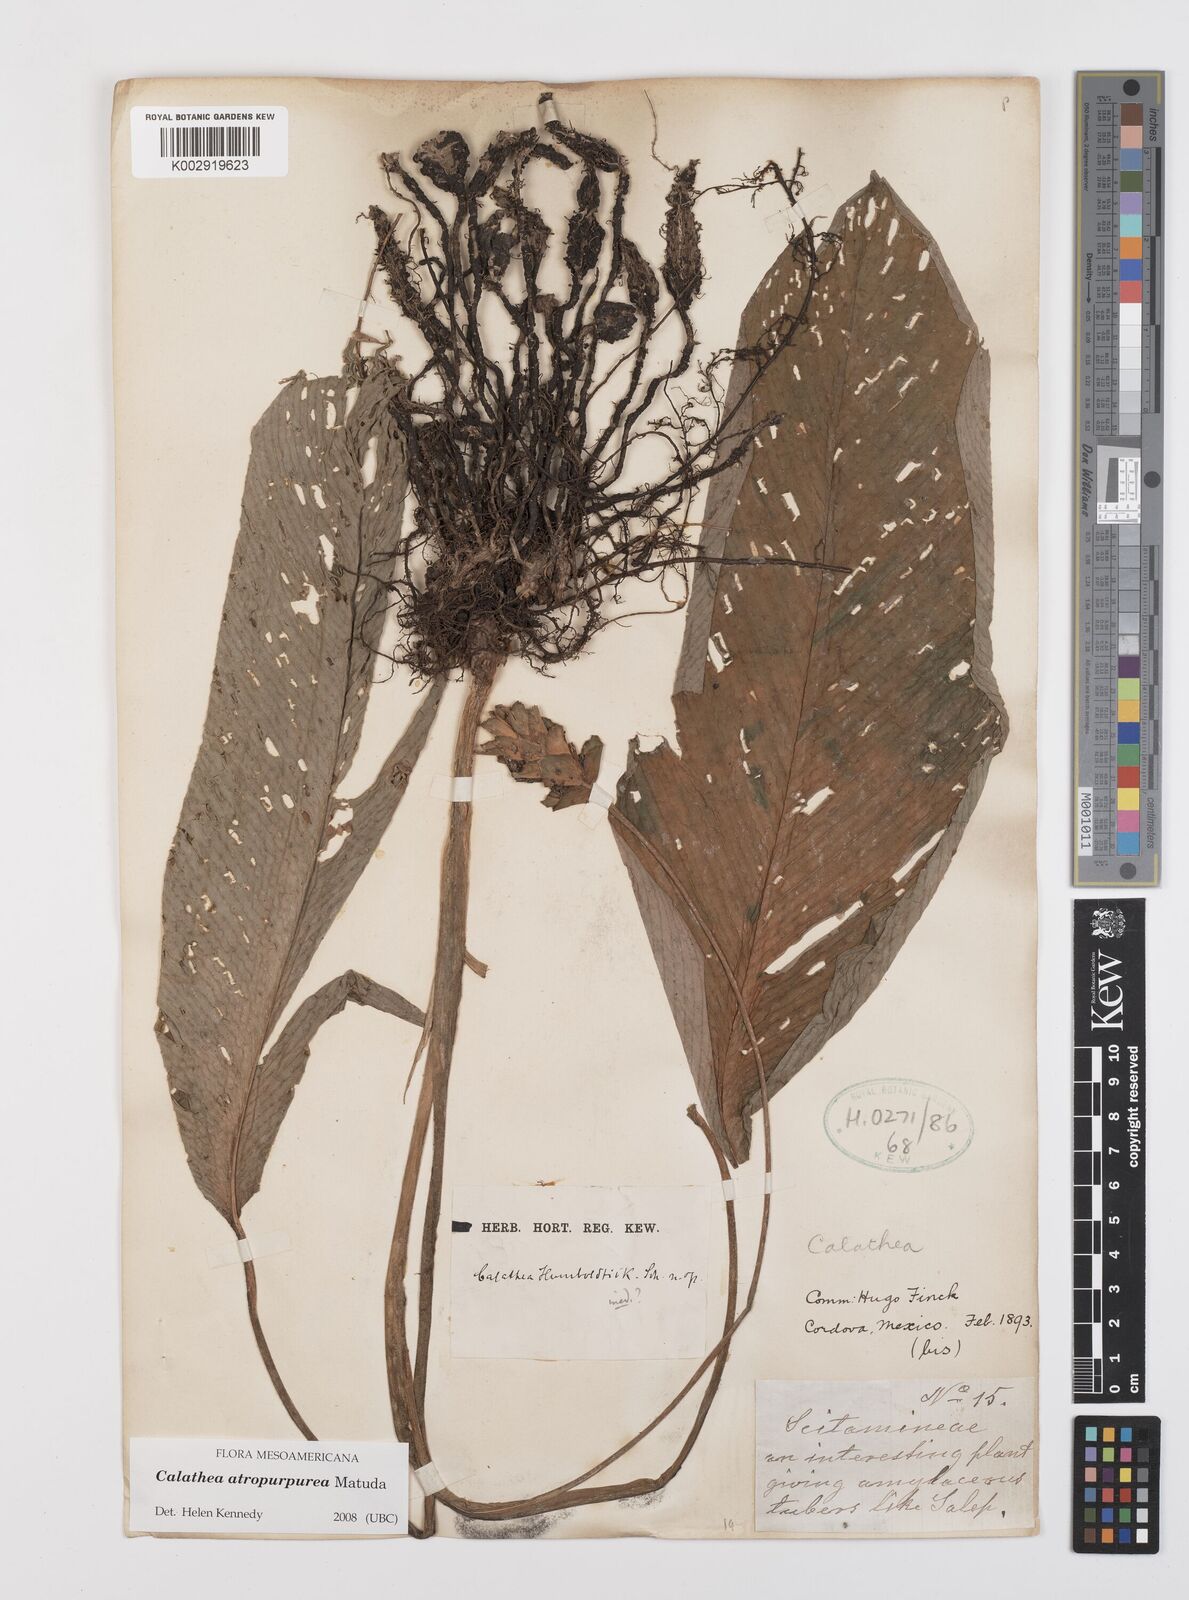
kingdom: Plantae
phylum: Tracheophyta
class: Liliopsida
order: Zingiberales
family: Marantaceae
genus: Goeppertia
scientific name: Goeppertia atropurpurea
